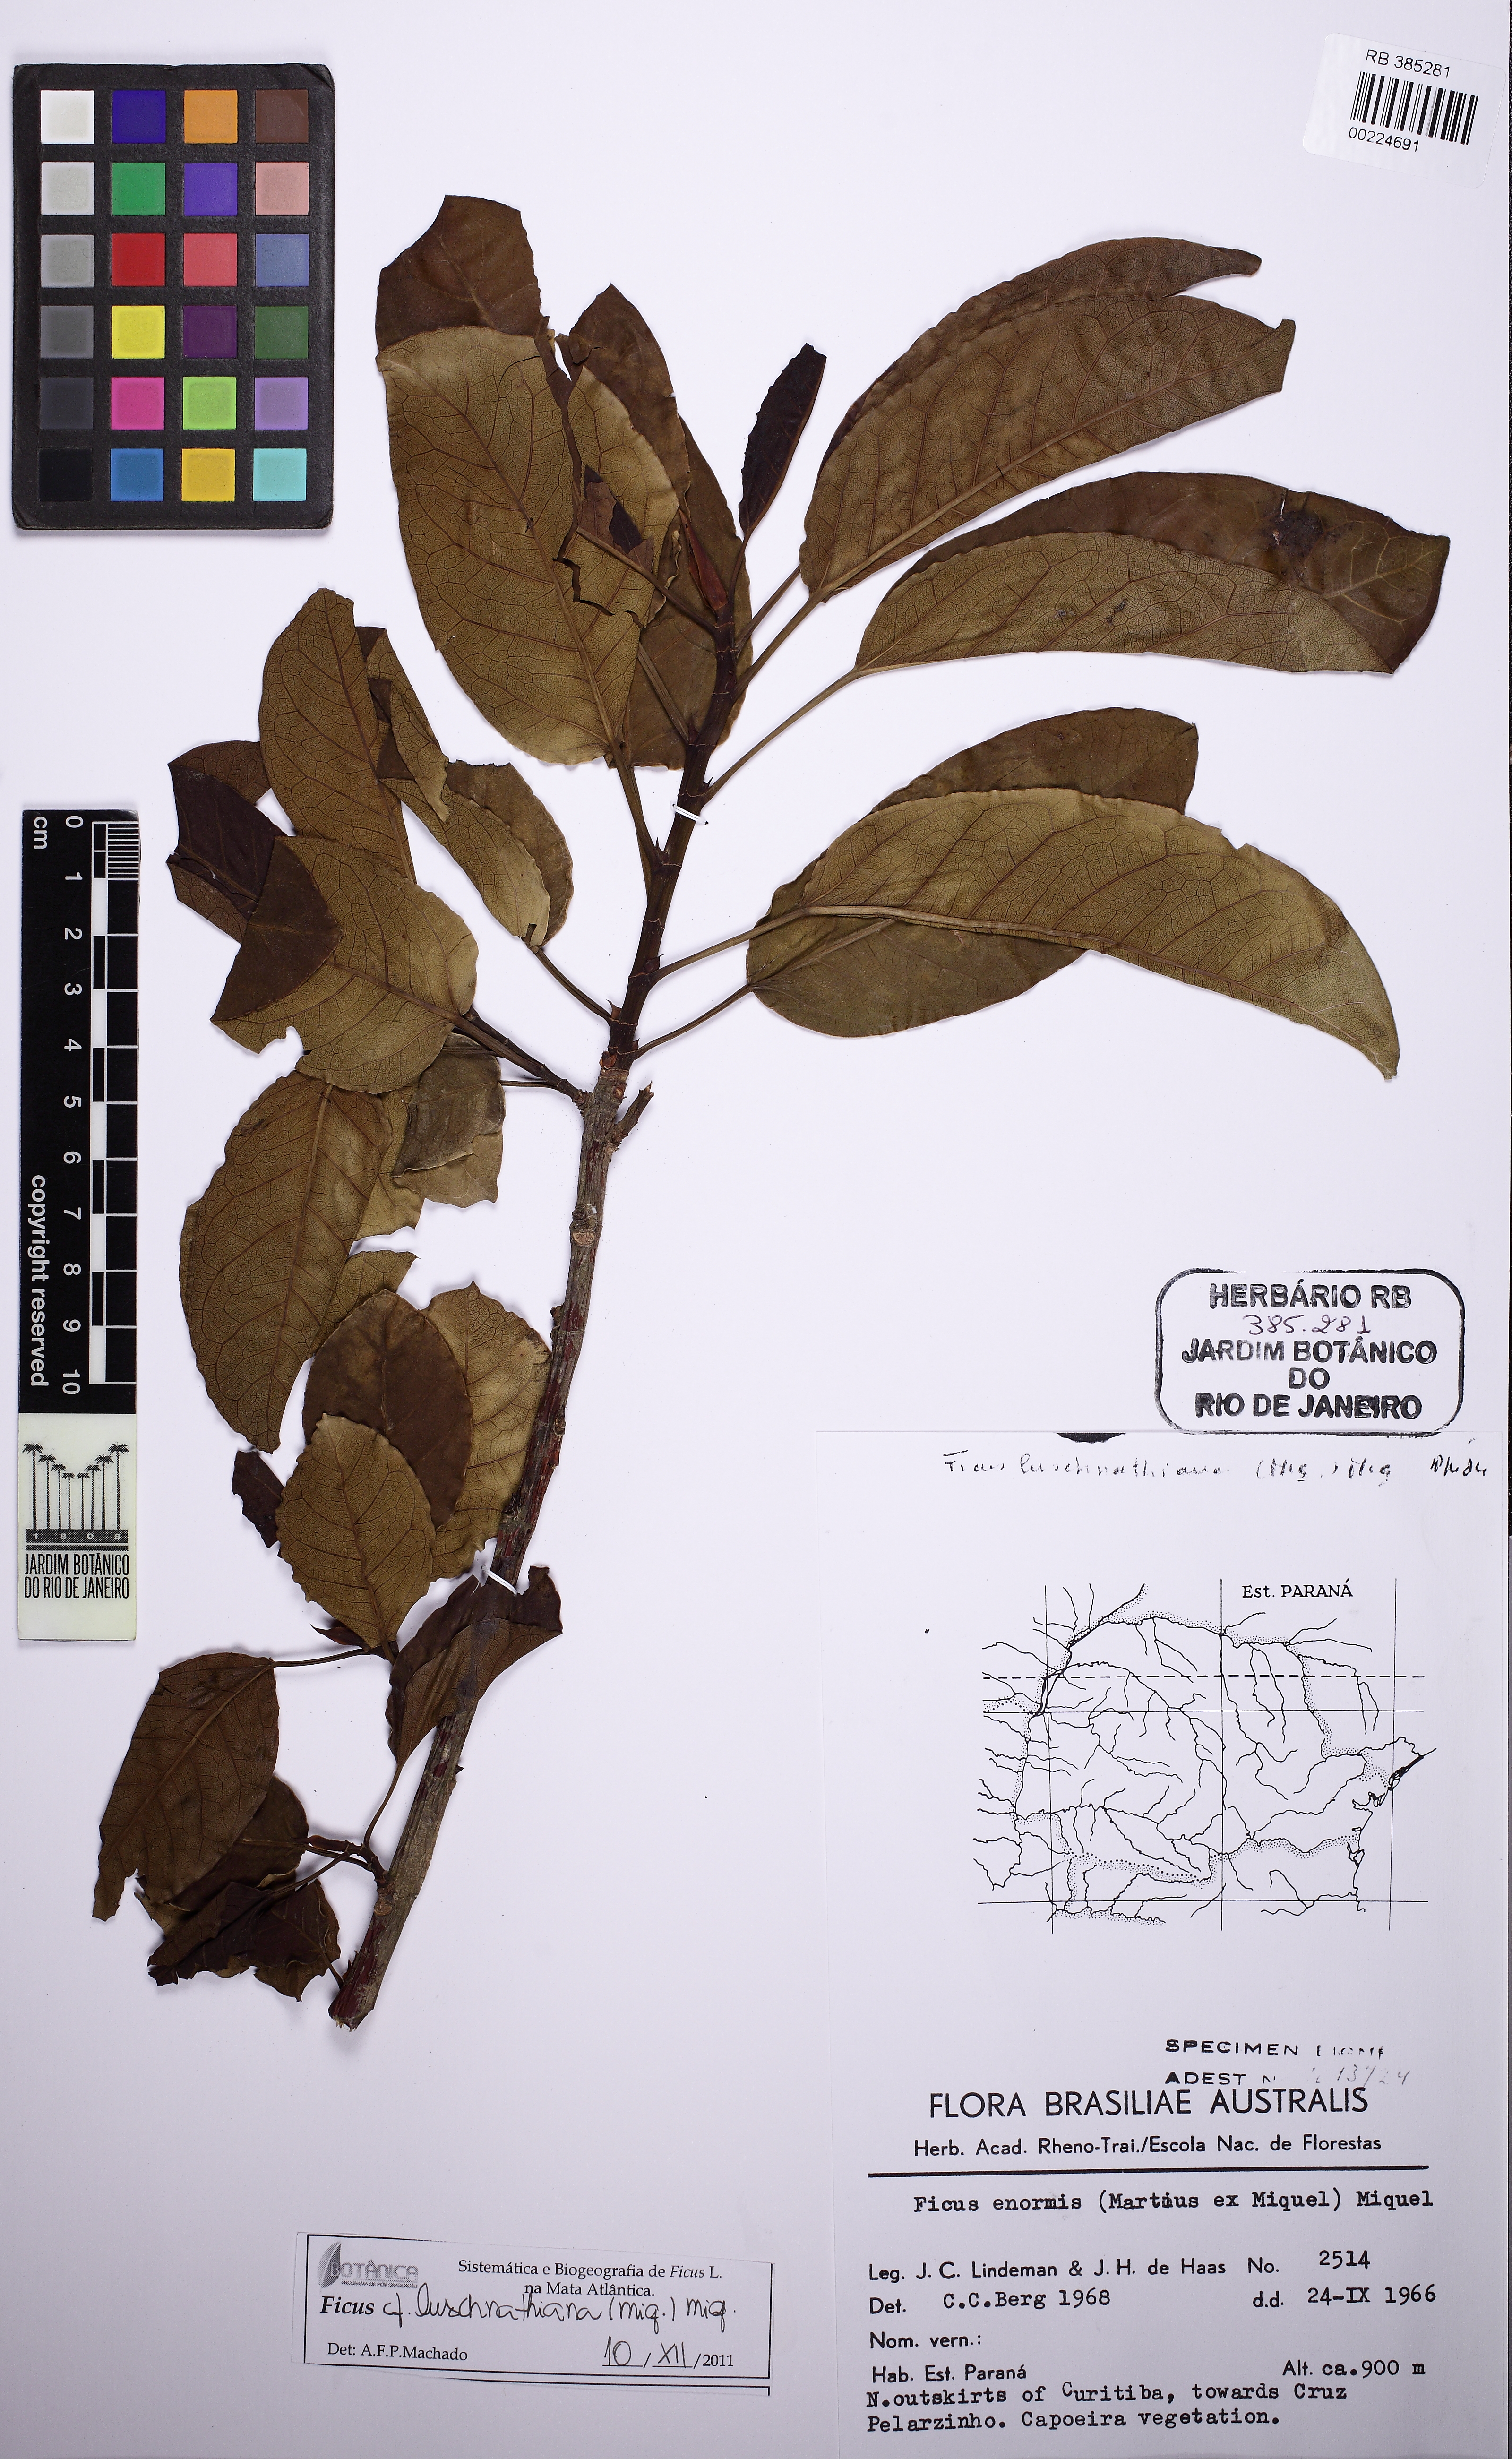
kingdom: Plantae
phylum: Tracheophyta
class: Magnoliopsida
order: Rosales
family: Moraceae
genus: Ficus
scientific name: Ficus luschnathiana
